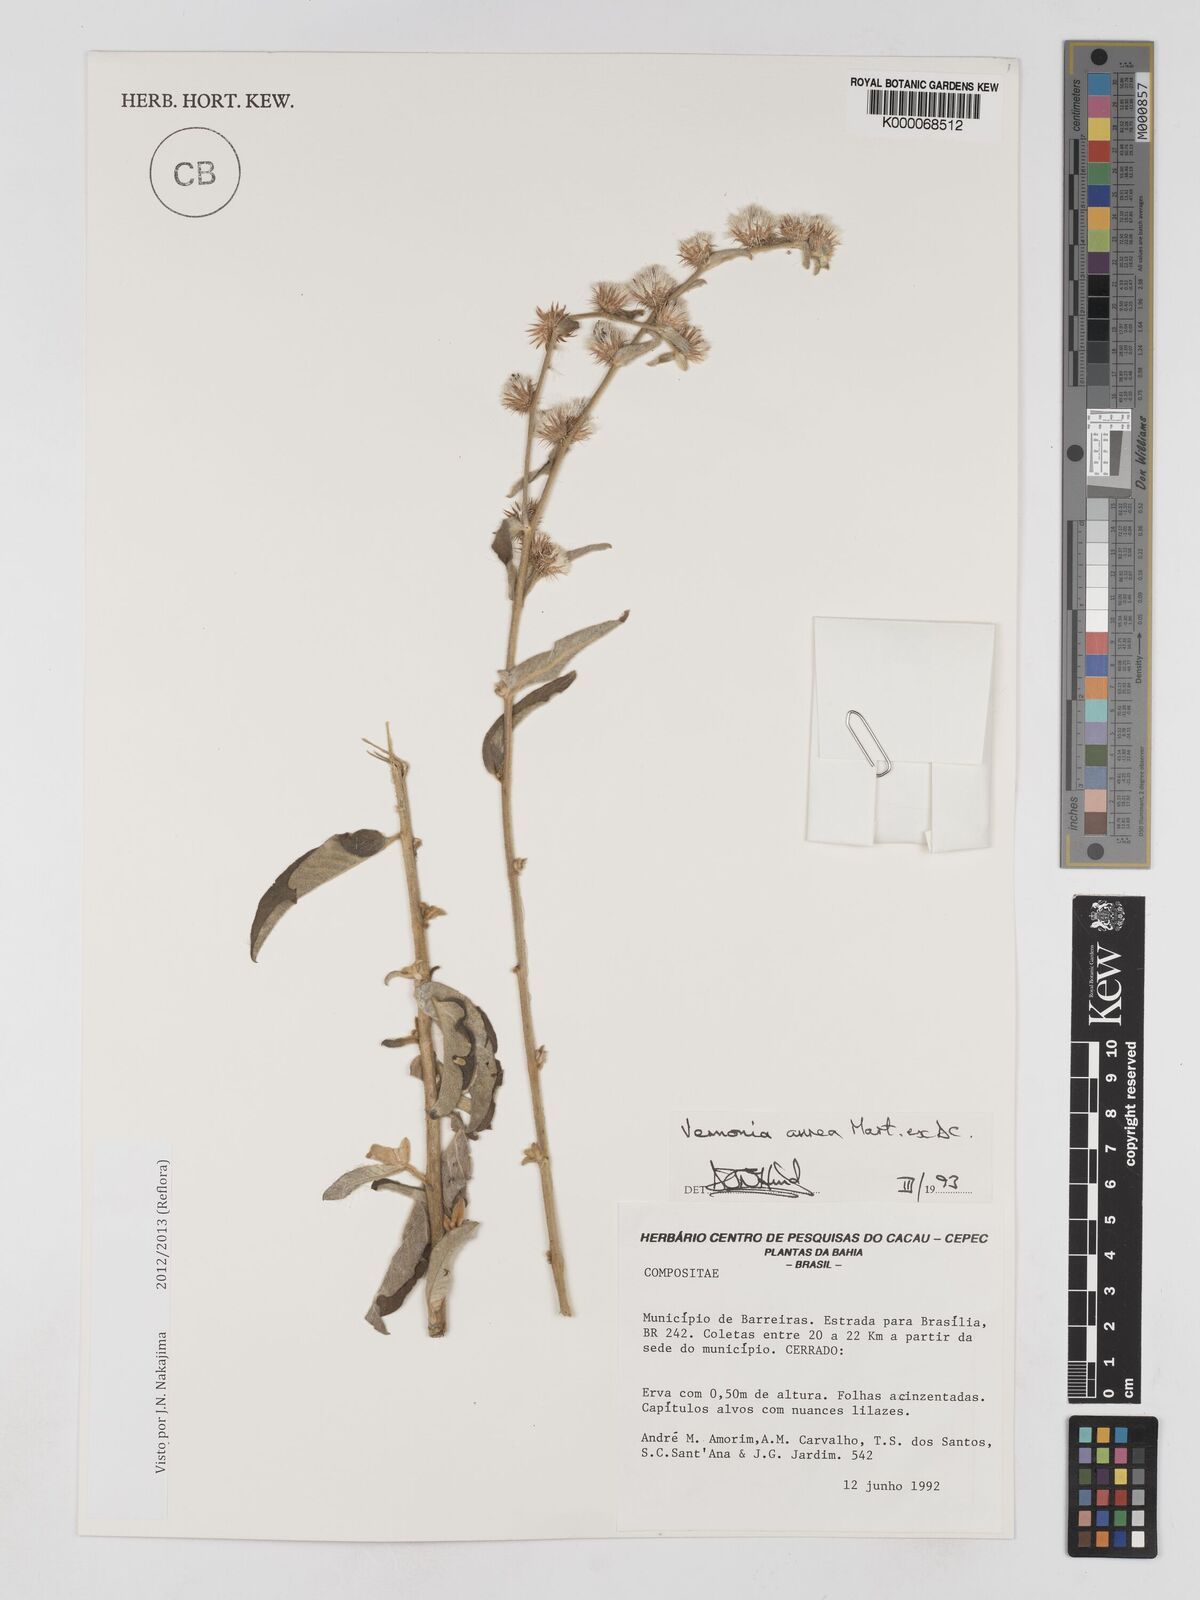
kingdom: Plantae
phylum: Tracheophyta
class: Magnoliopsida
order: Asterales
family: Asteraceae
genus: Lepidaploa
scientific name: Lepidaploa aurea
